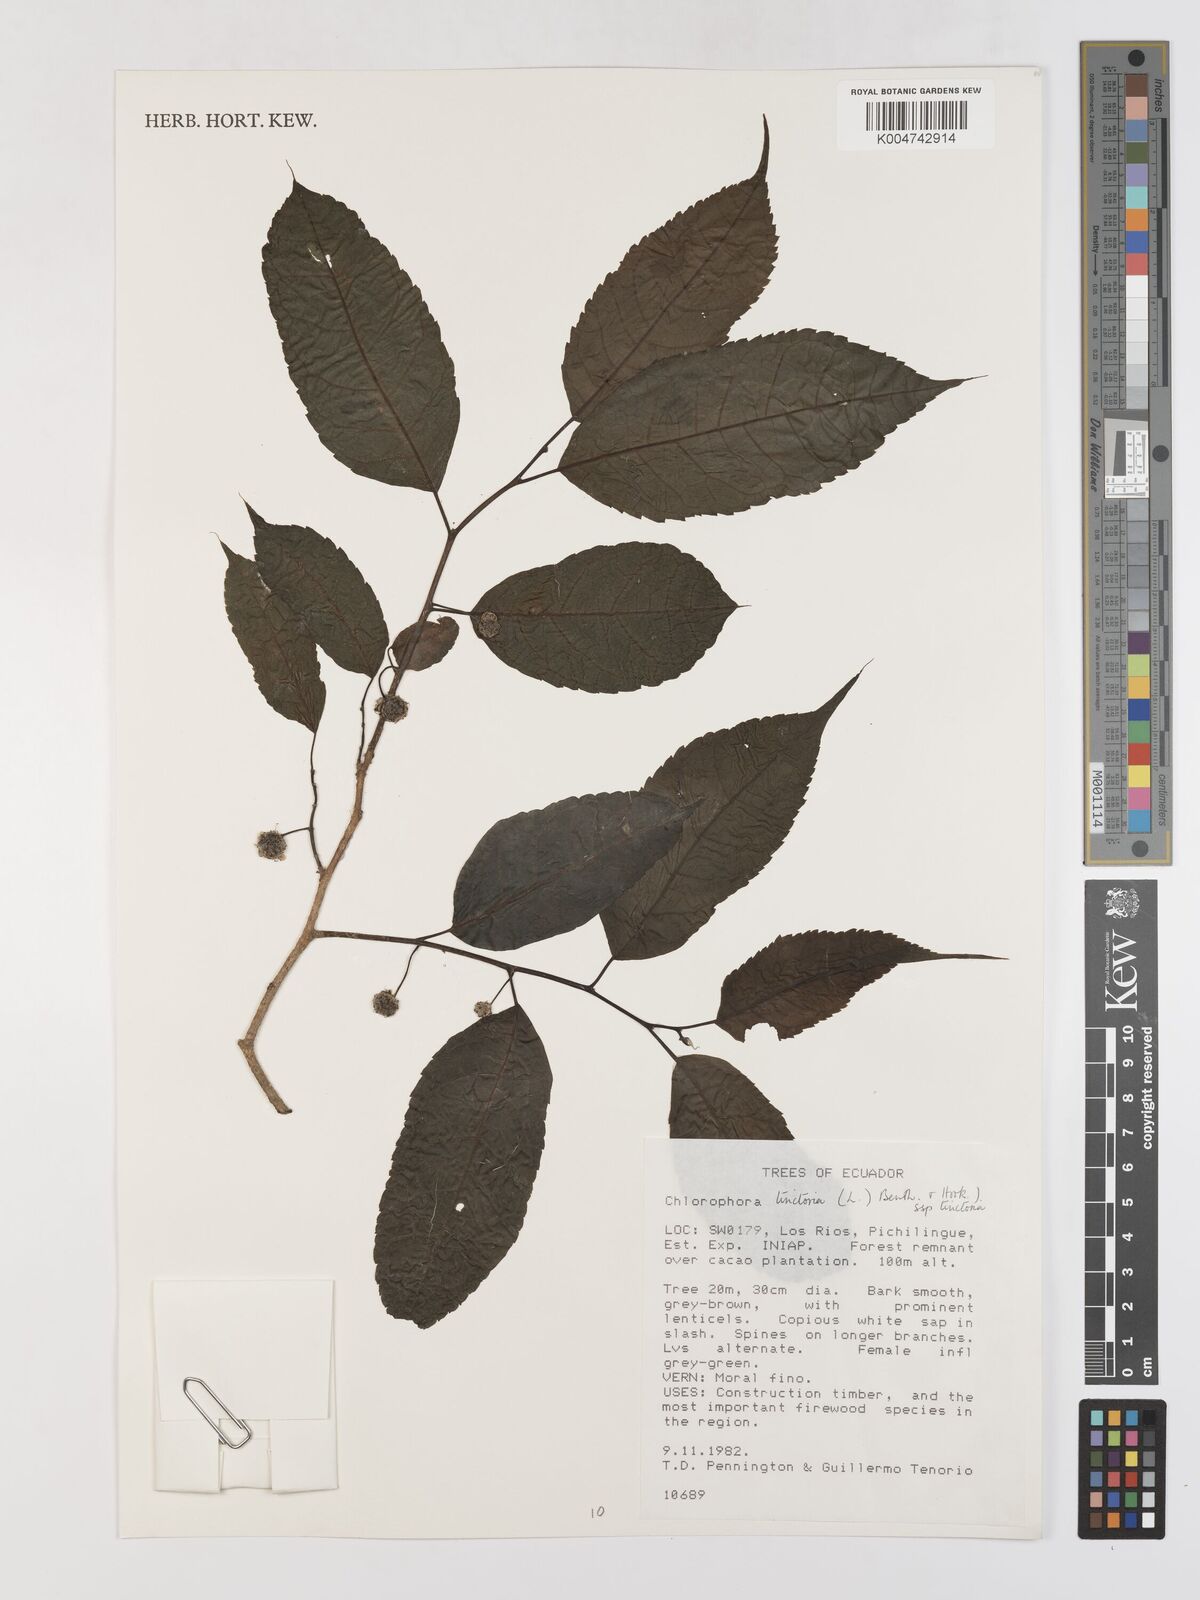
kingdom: Plantae
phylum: Tracheophyta
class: Magnoliopsida
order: Rosales
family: Moraceae
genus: Maclura
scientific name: Maclura tinctoria
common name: Old fustic
